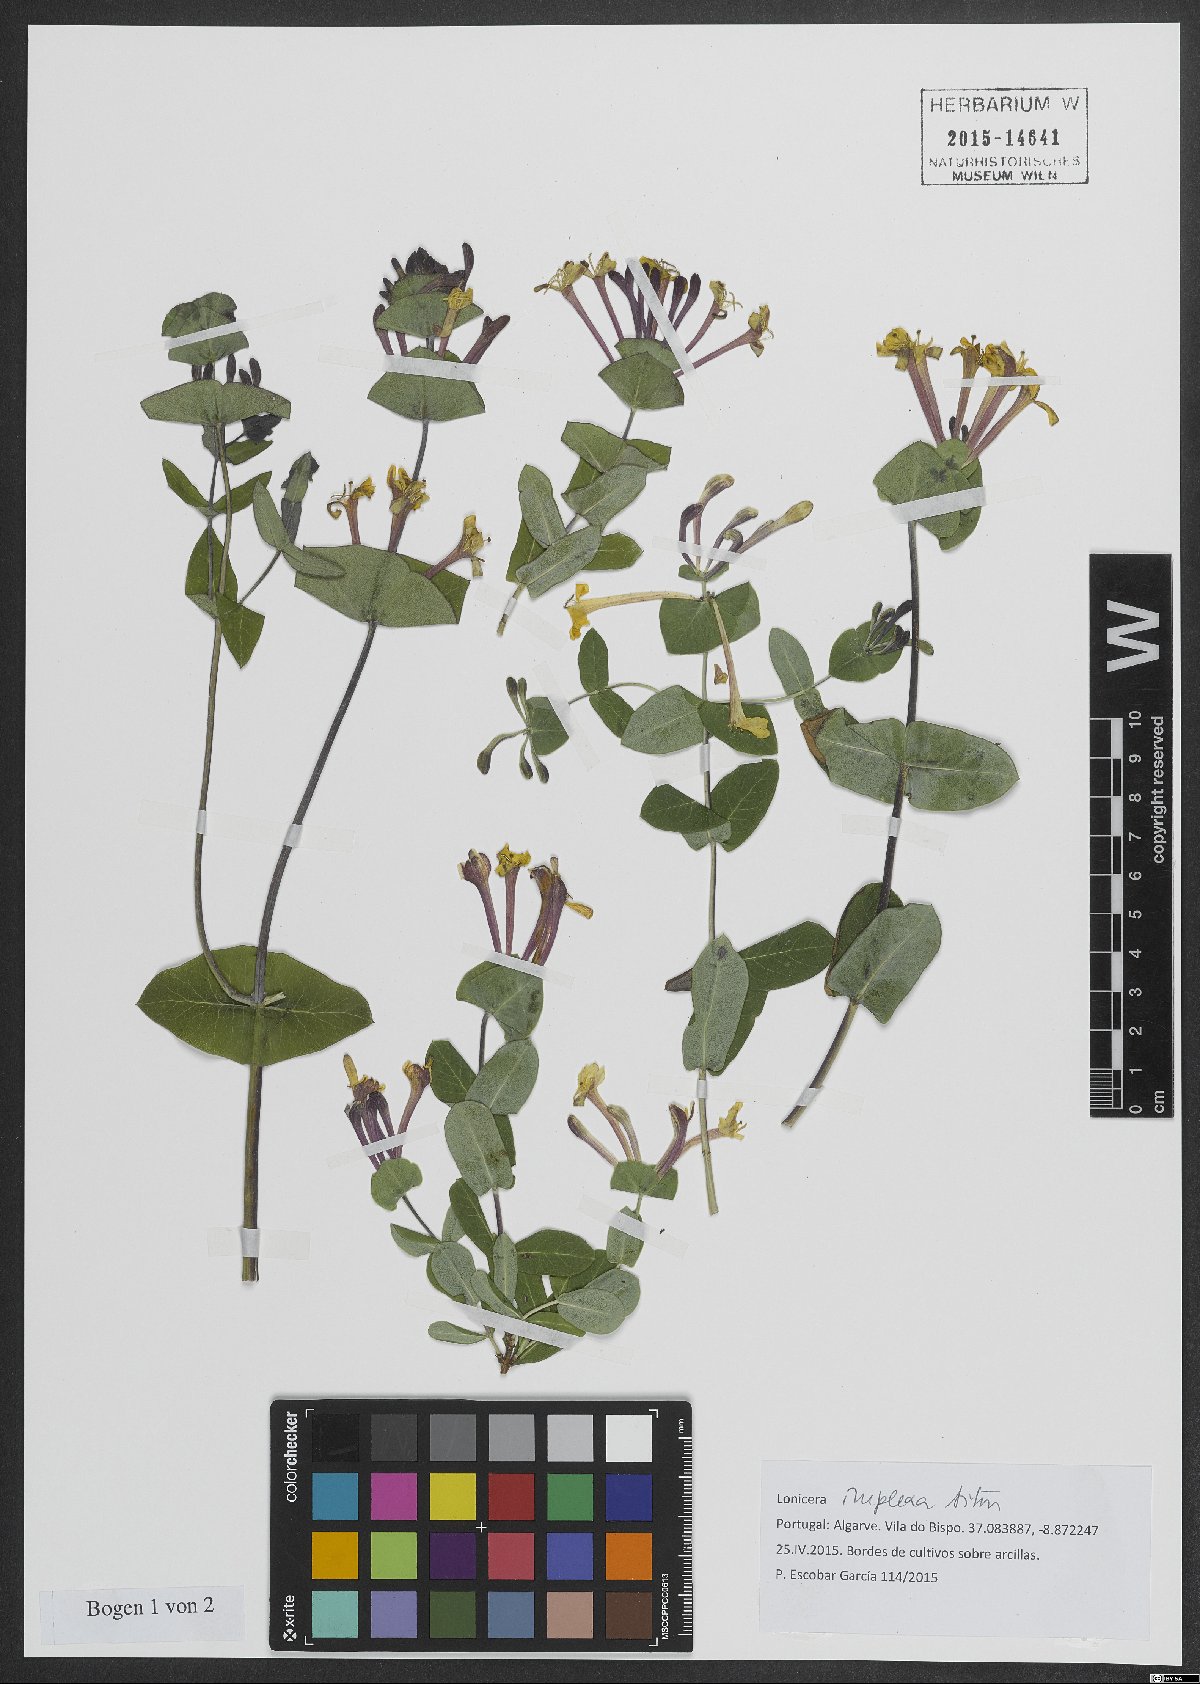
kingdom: Plantae
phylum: Tracheophyta
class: Magnoliopsida
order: Dipsacales
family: Caprifoliaceae
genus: Lonicera
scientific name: Lonicera implexa
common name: Minorca honeysuckle
